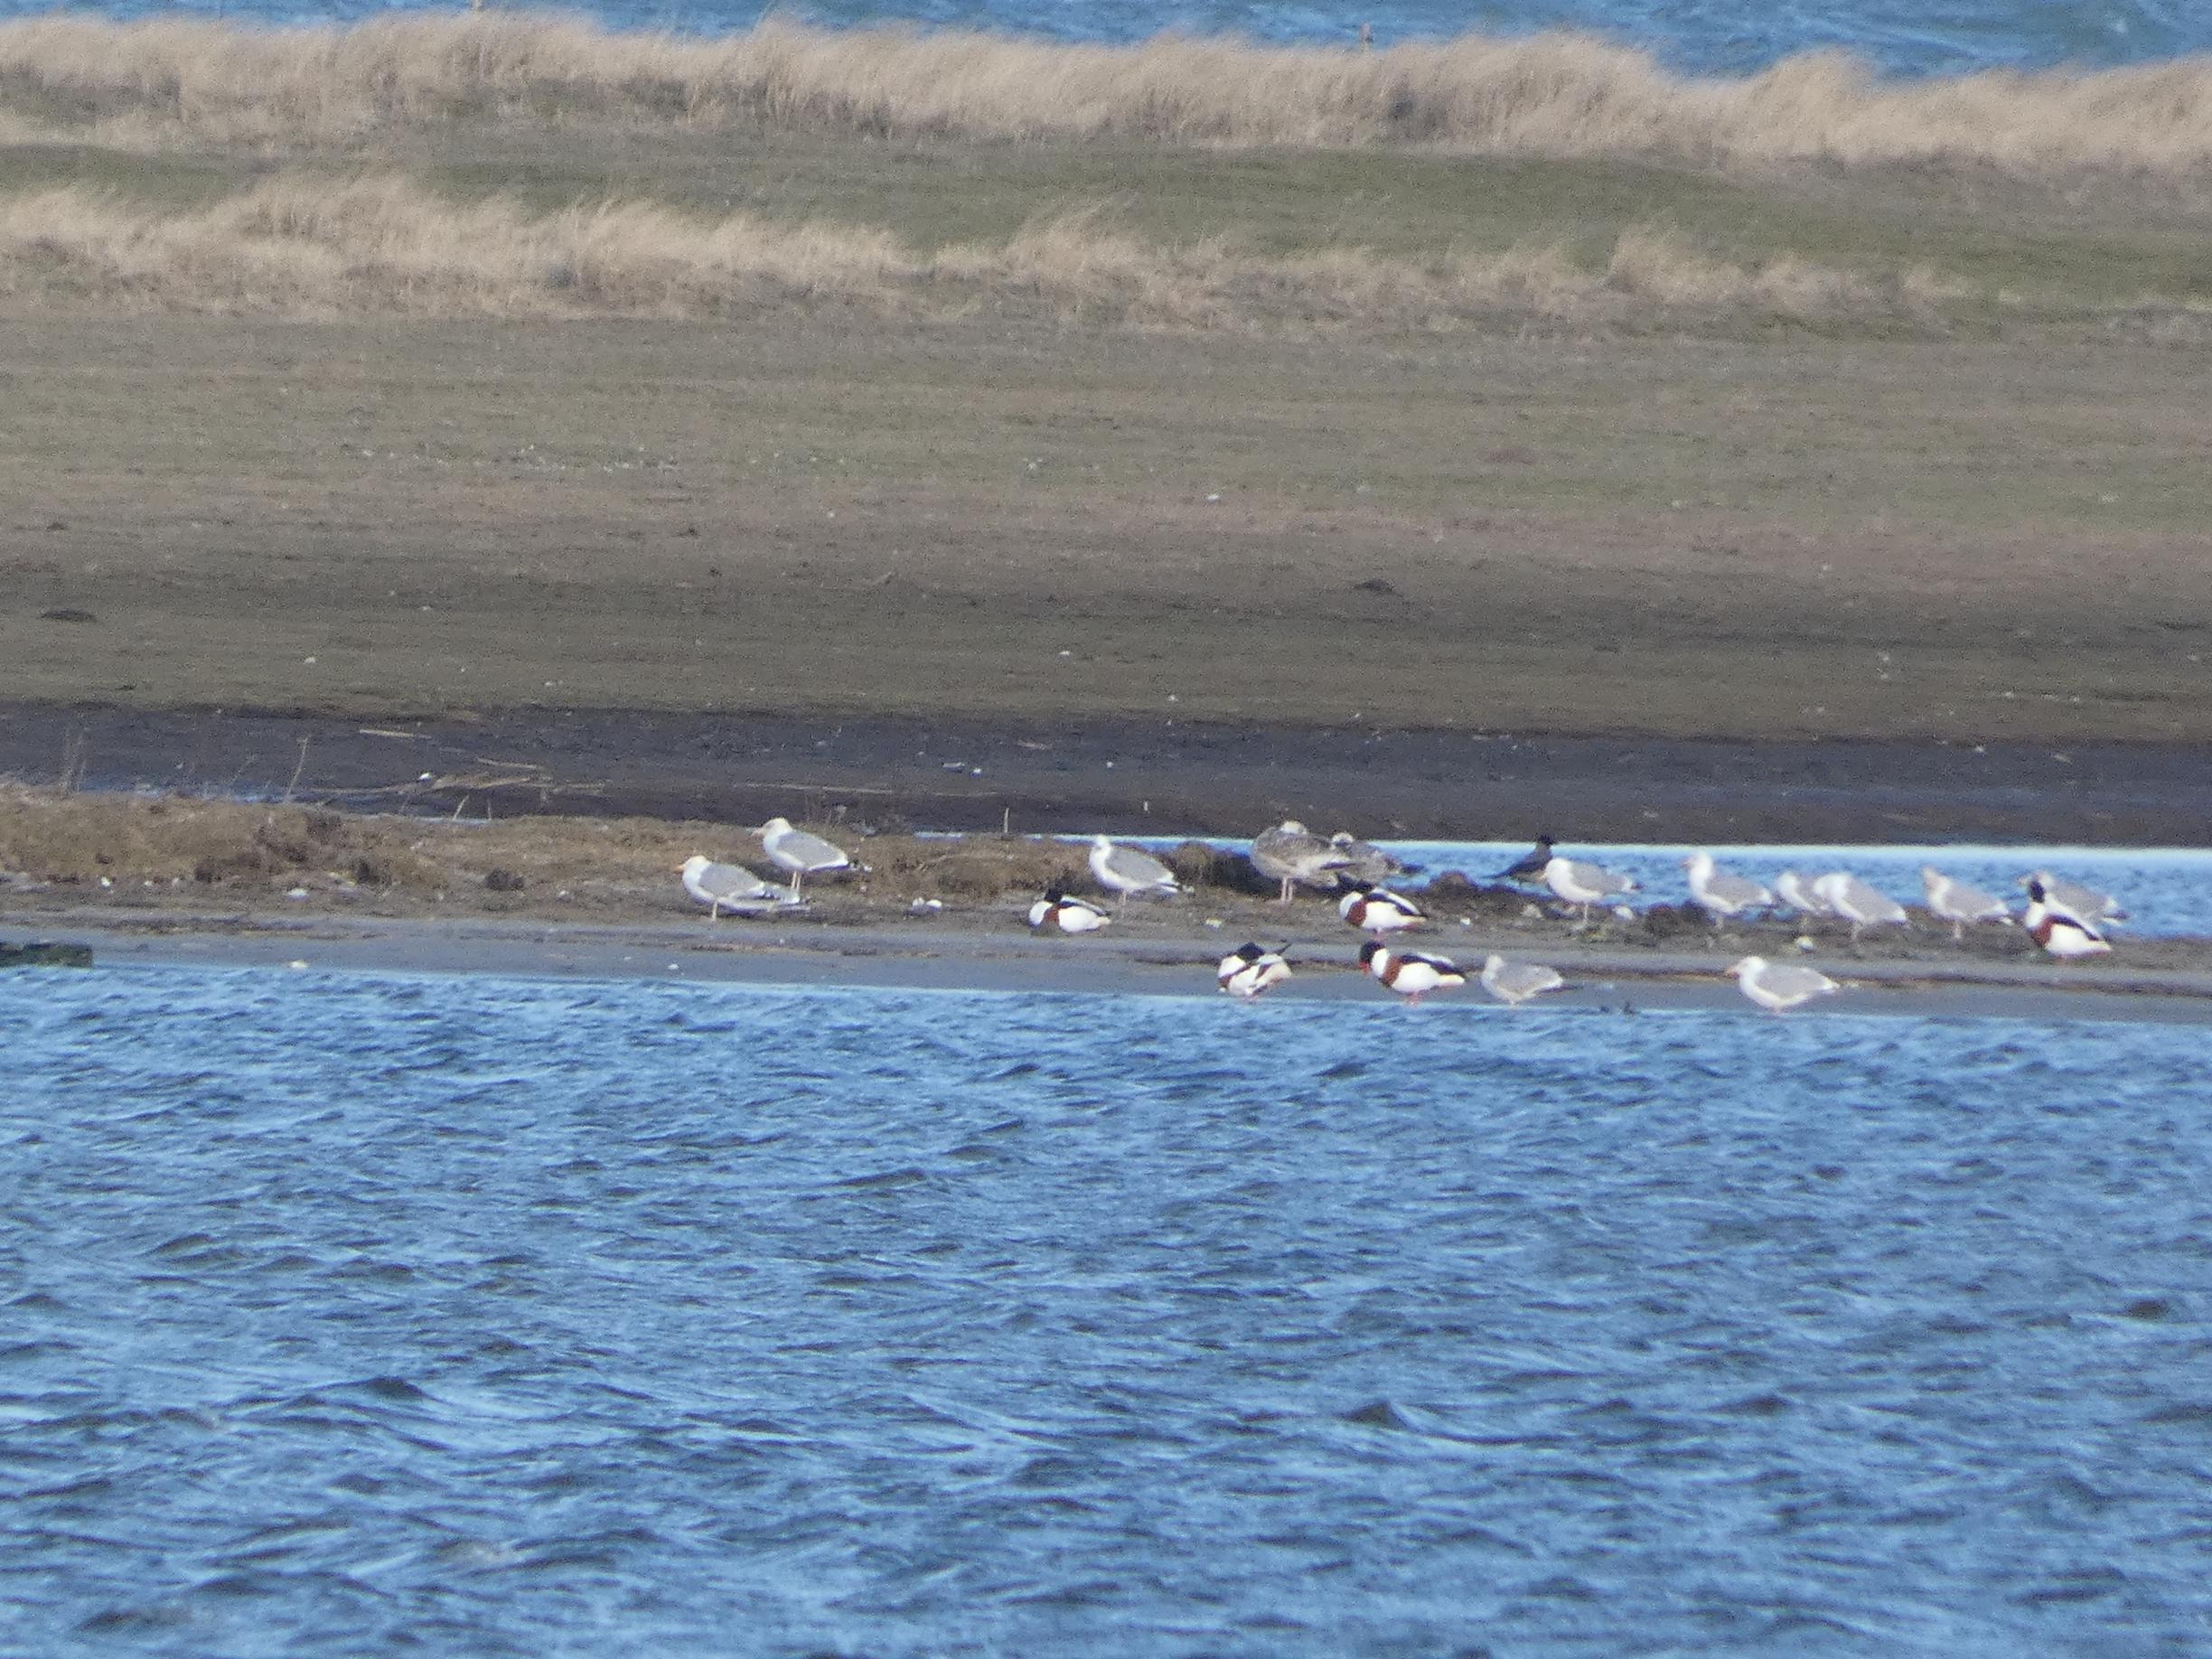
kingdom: Animalia
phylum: Chordata
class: Aves
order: Anseriformes
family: Anatidae
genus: Tadorna
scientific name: Tadorna tadorna
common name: Gravand
